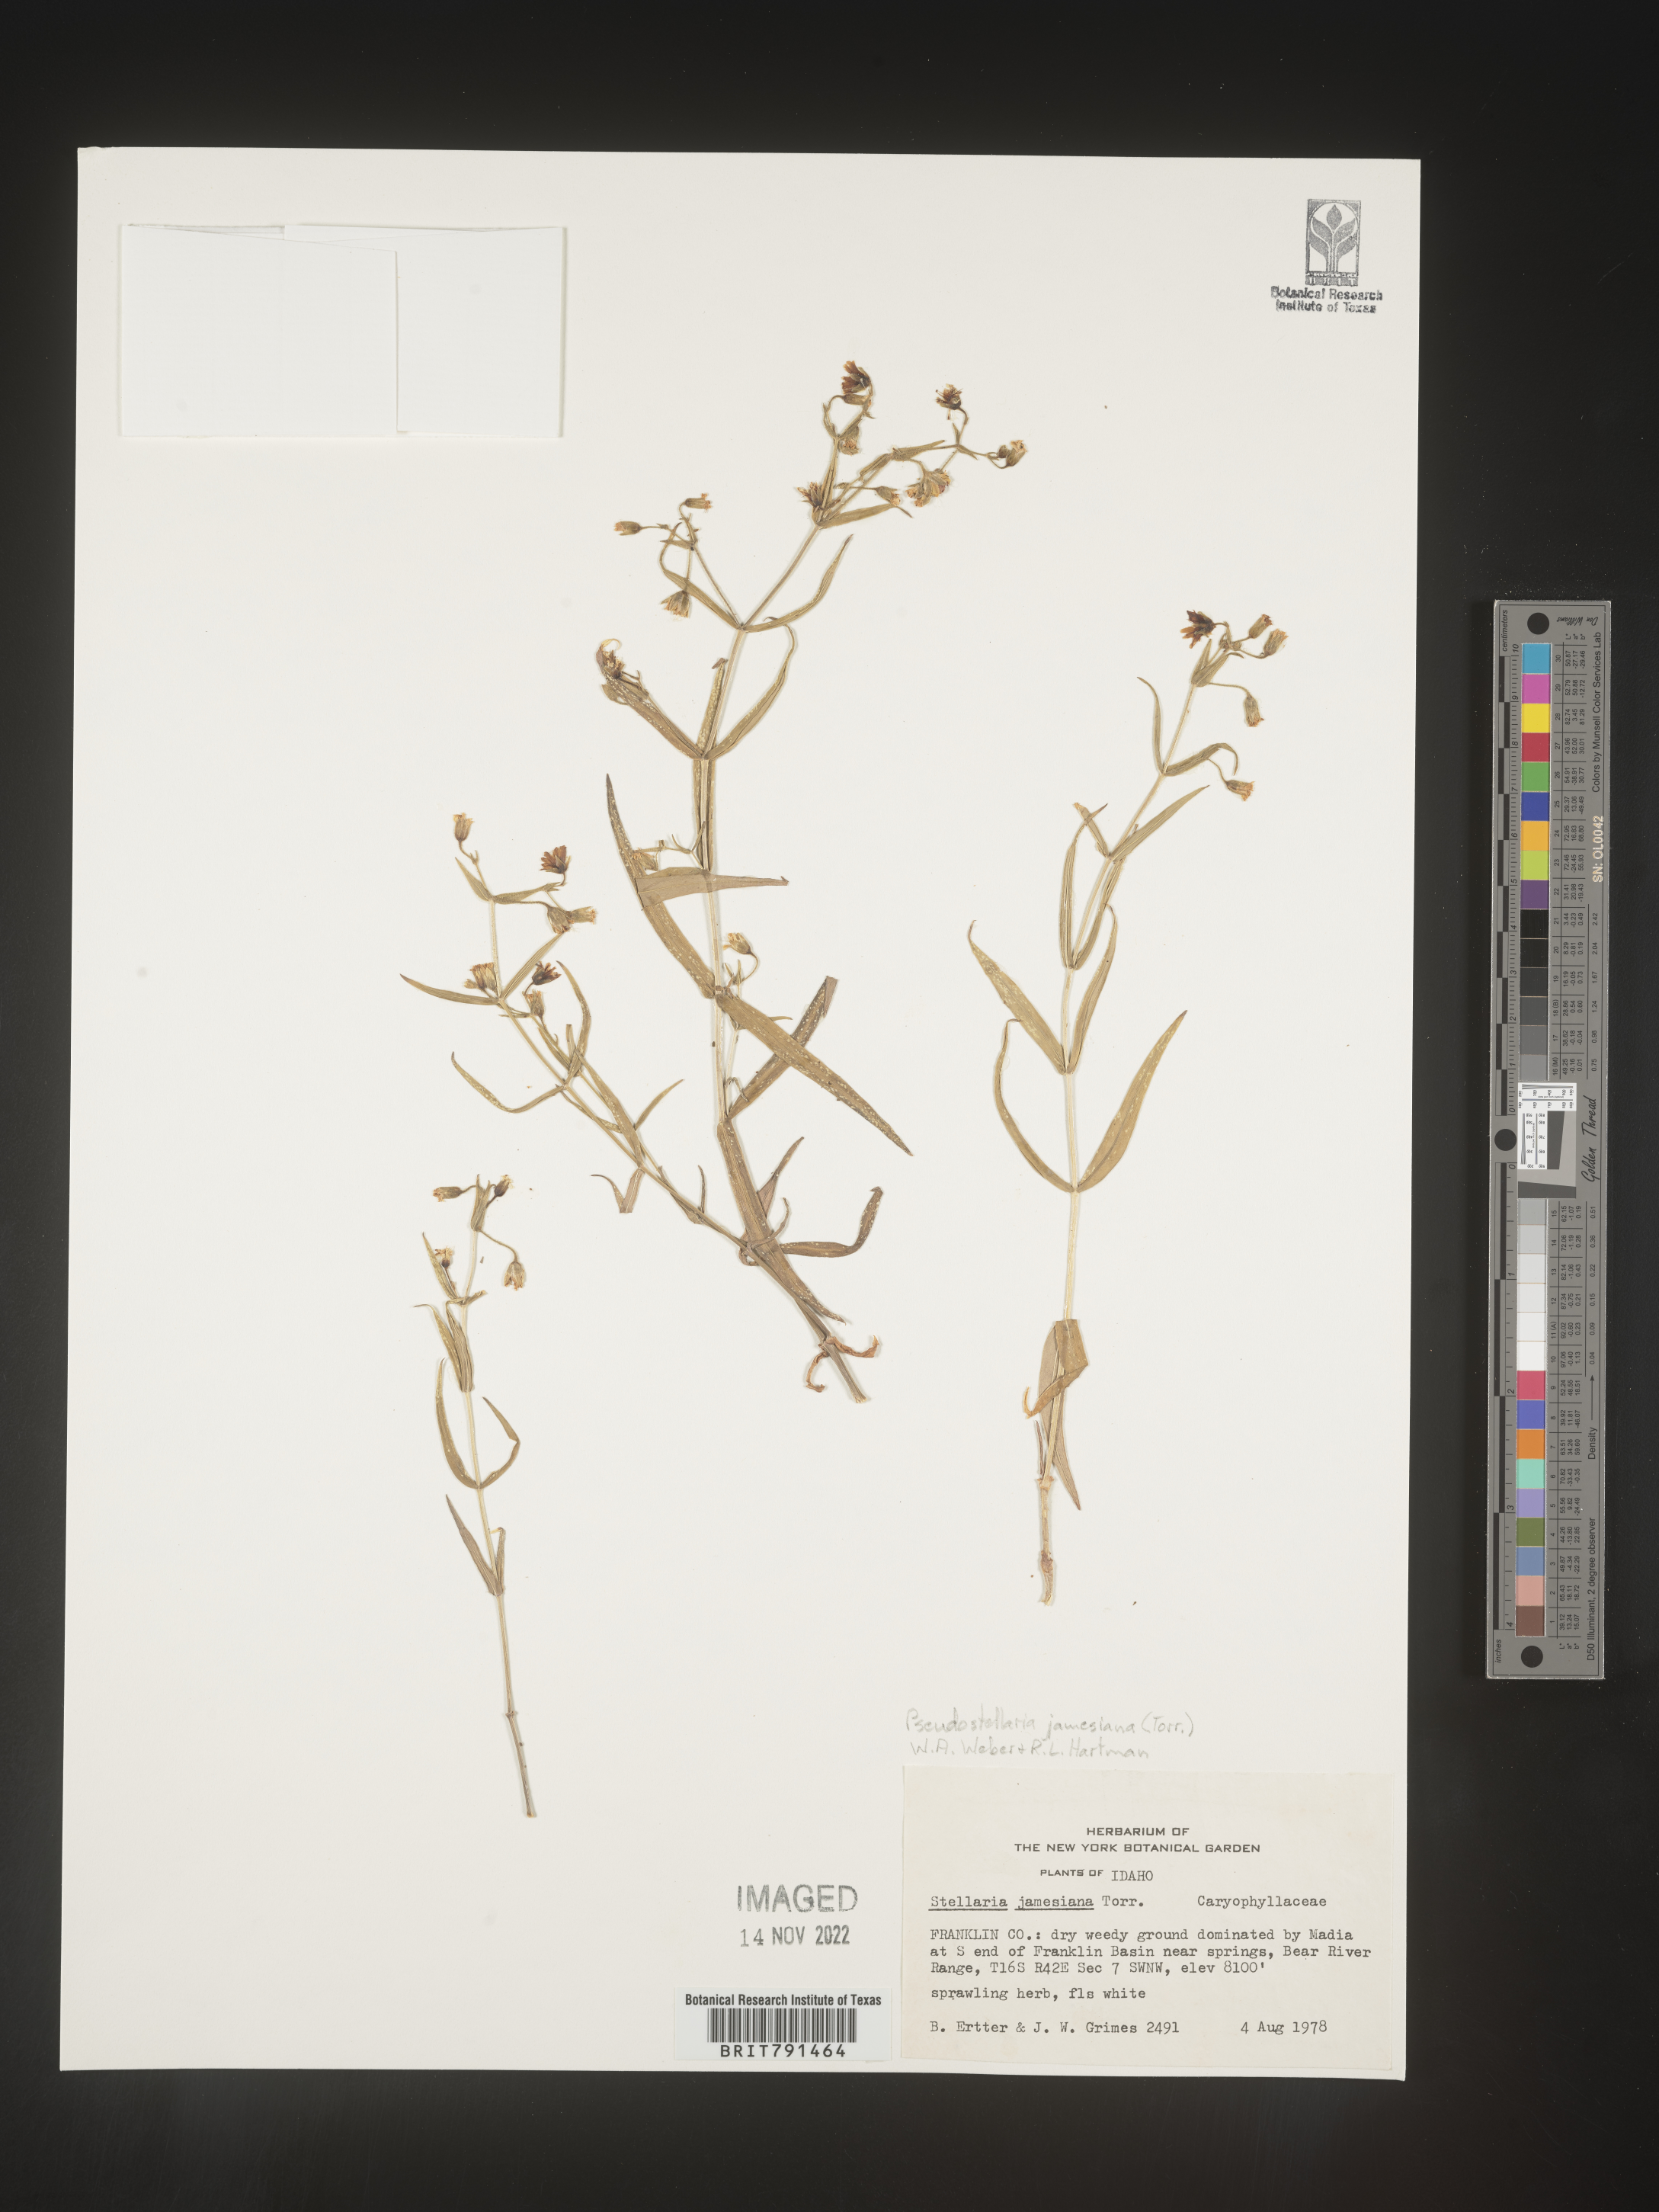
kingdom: Plantae
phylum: Tracheophyta
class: Magnoliopsida
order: Caryophyllales
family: Caryophyllaceae
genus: Pseudostellaria
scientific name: Pseudostellaria
